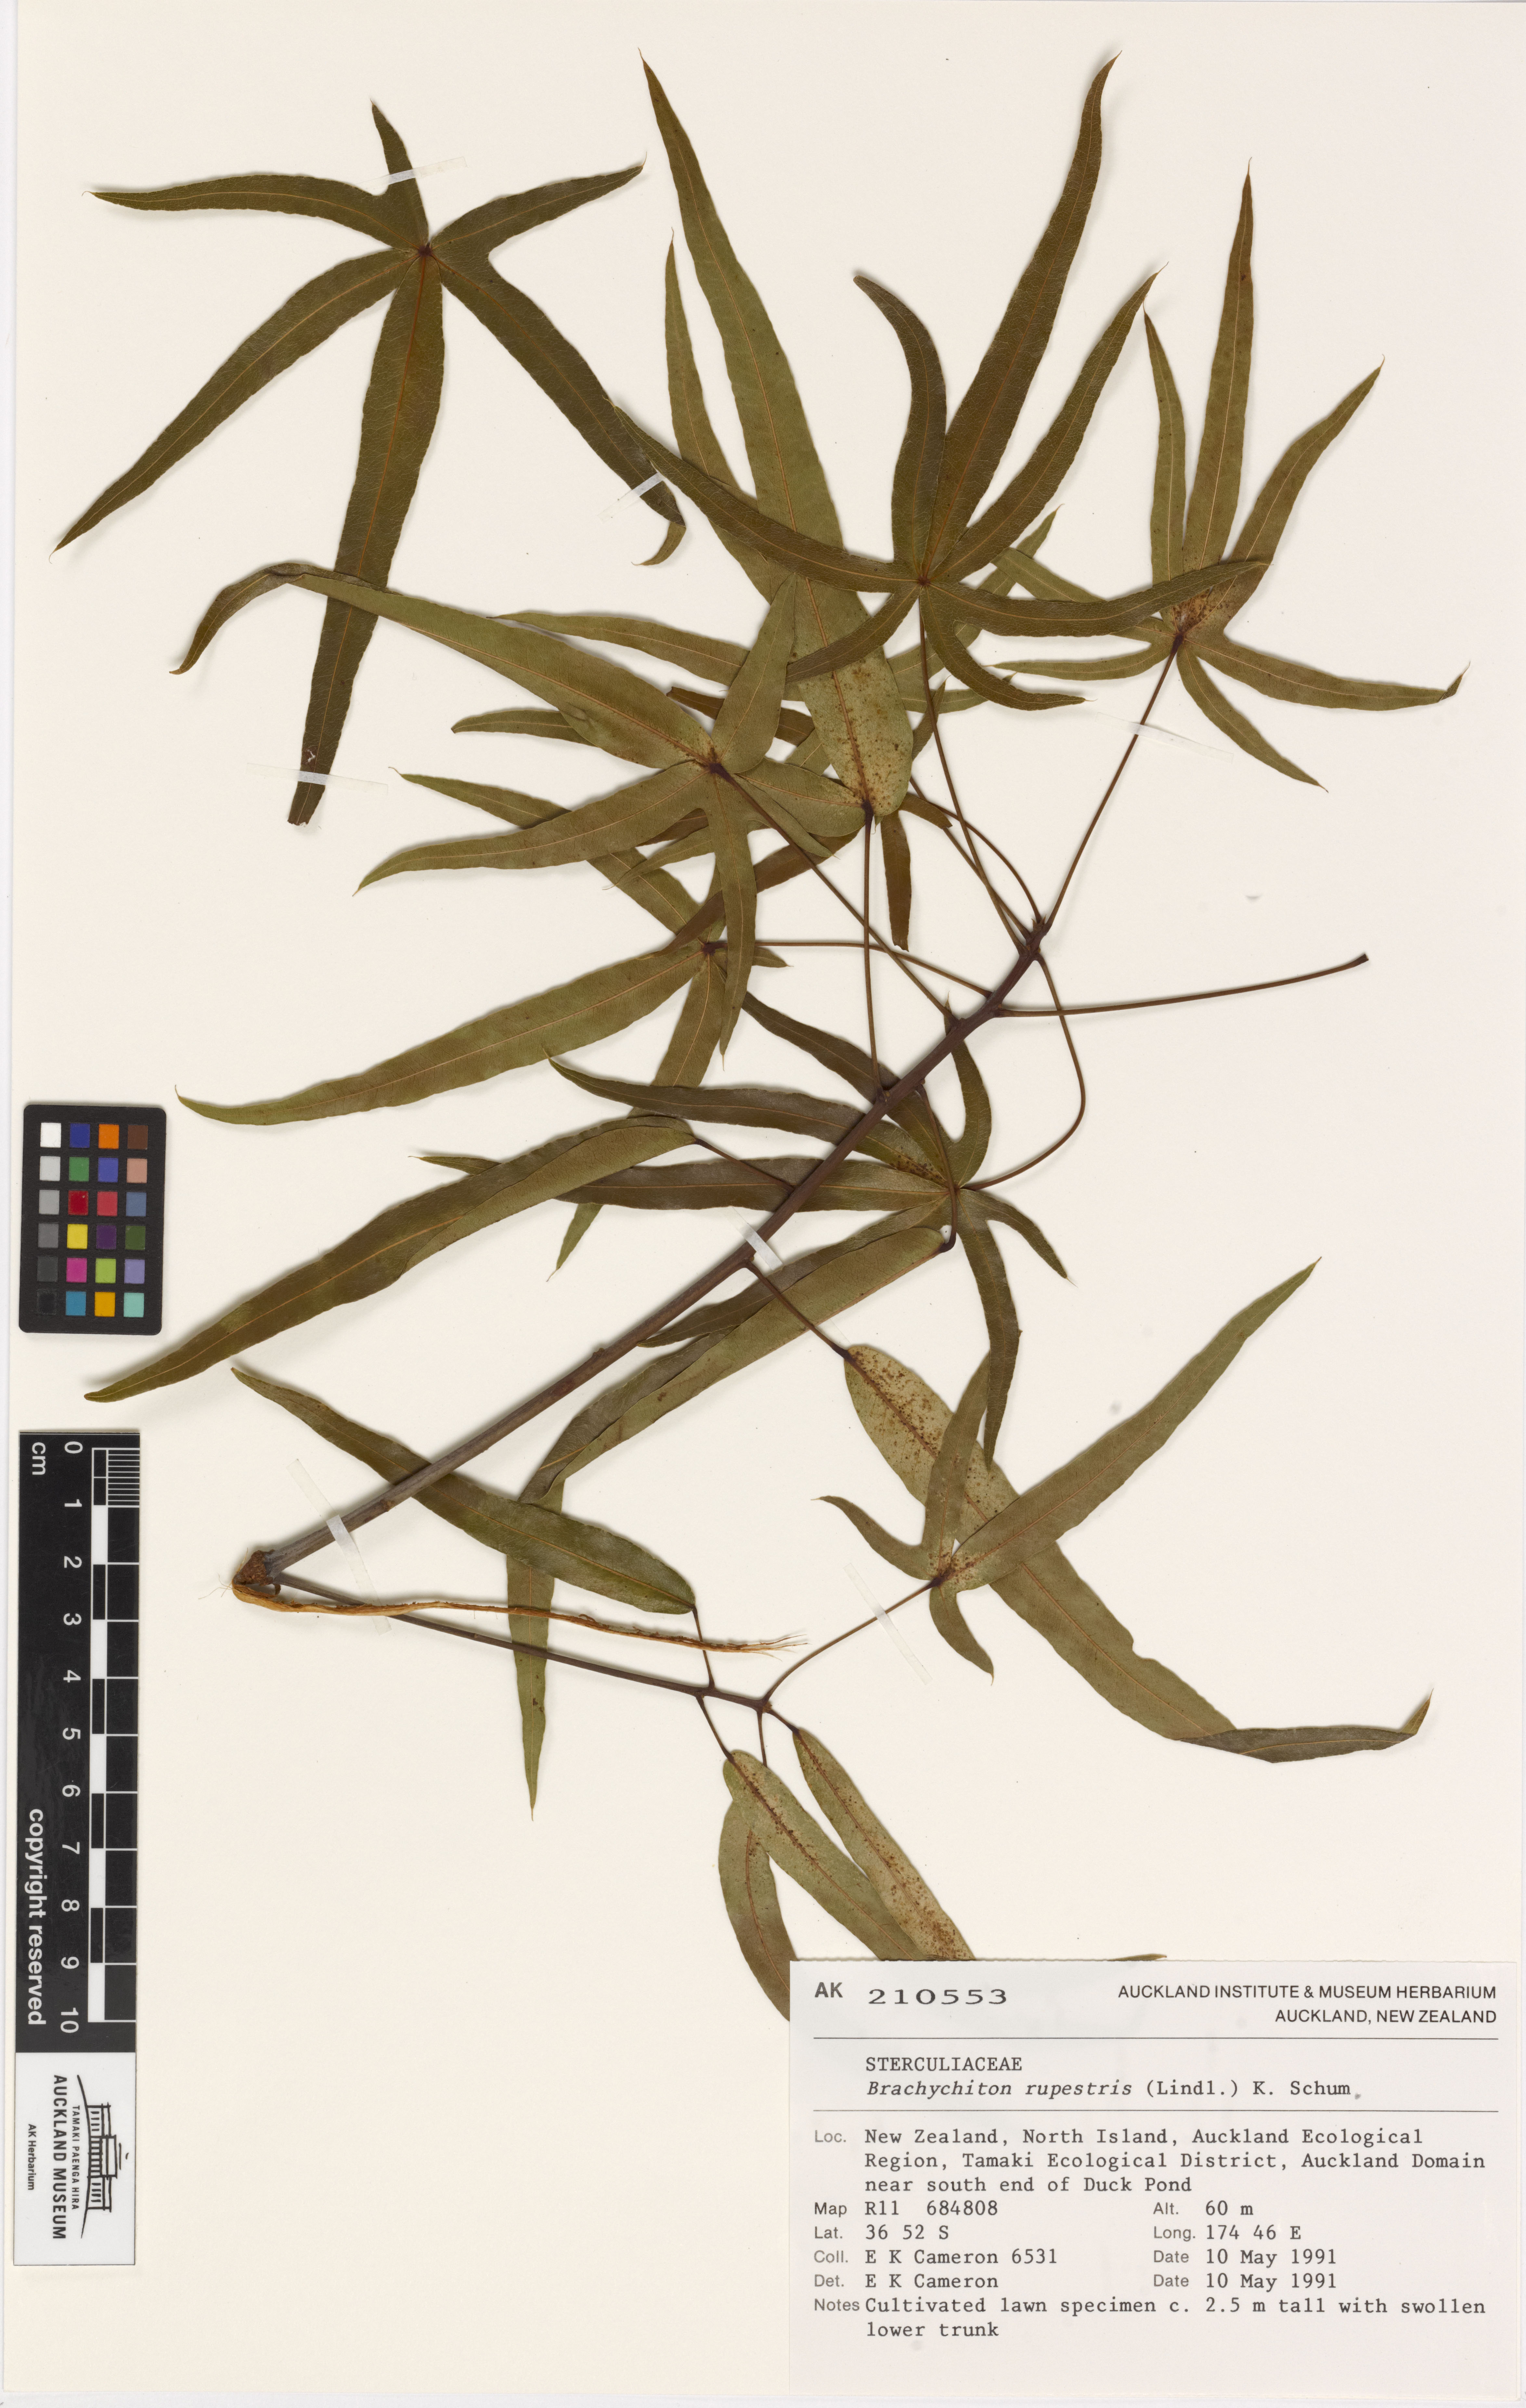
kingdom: Plantae
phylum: Tracheophyta
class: Magnoliopsida
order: Malvales
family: Malvaceae
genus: Brachychiton
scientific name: Brachychiton rupestris
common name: Queensland bottletree
